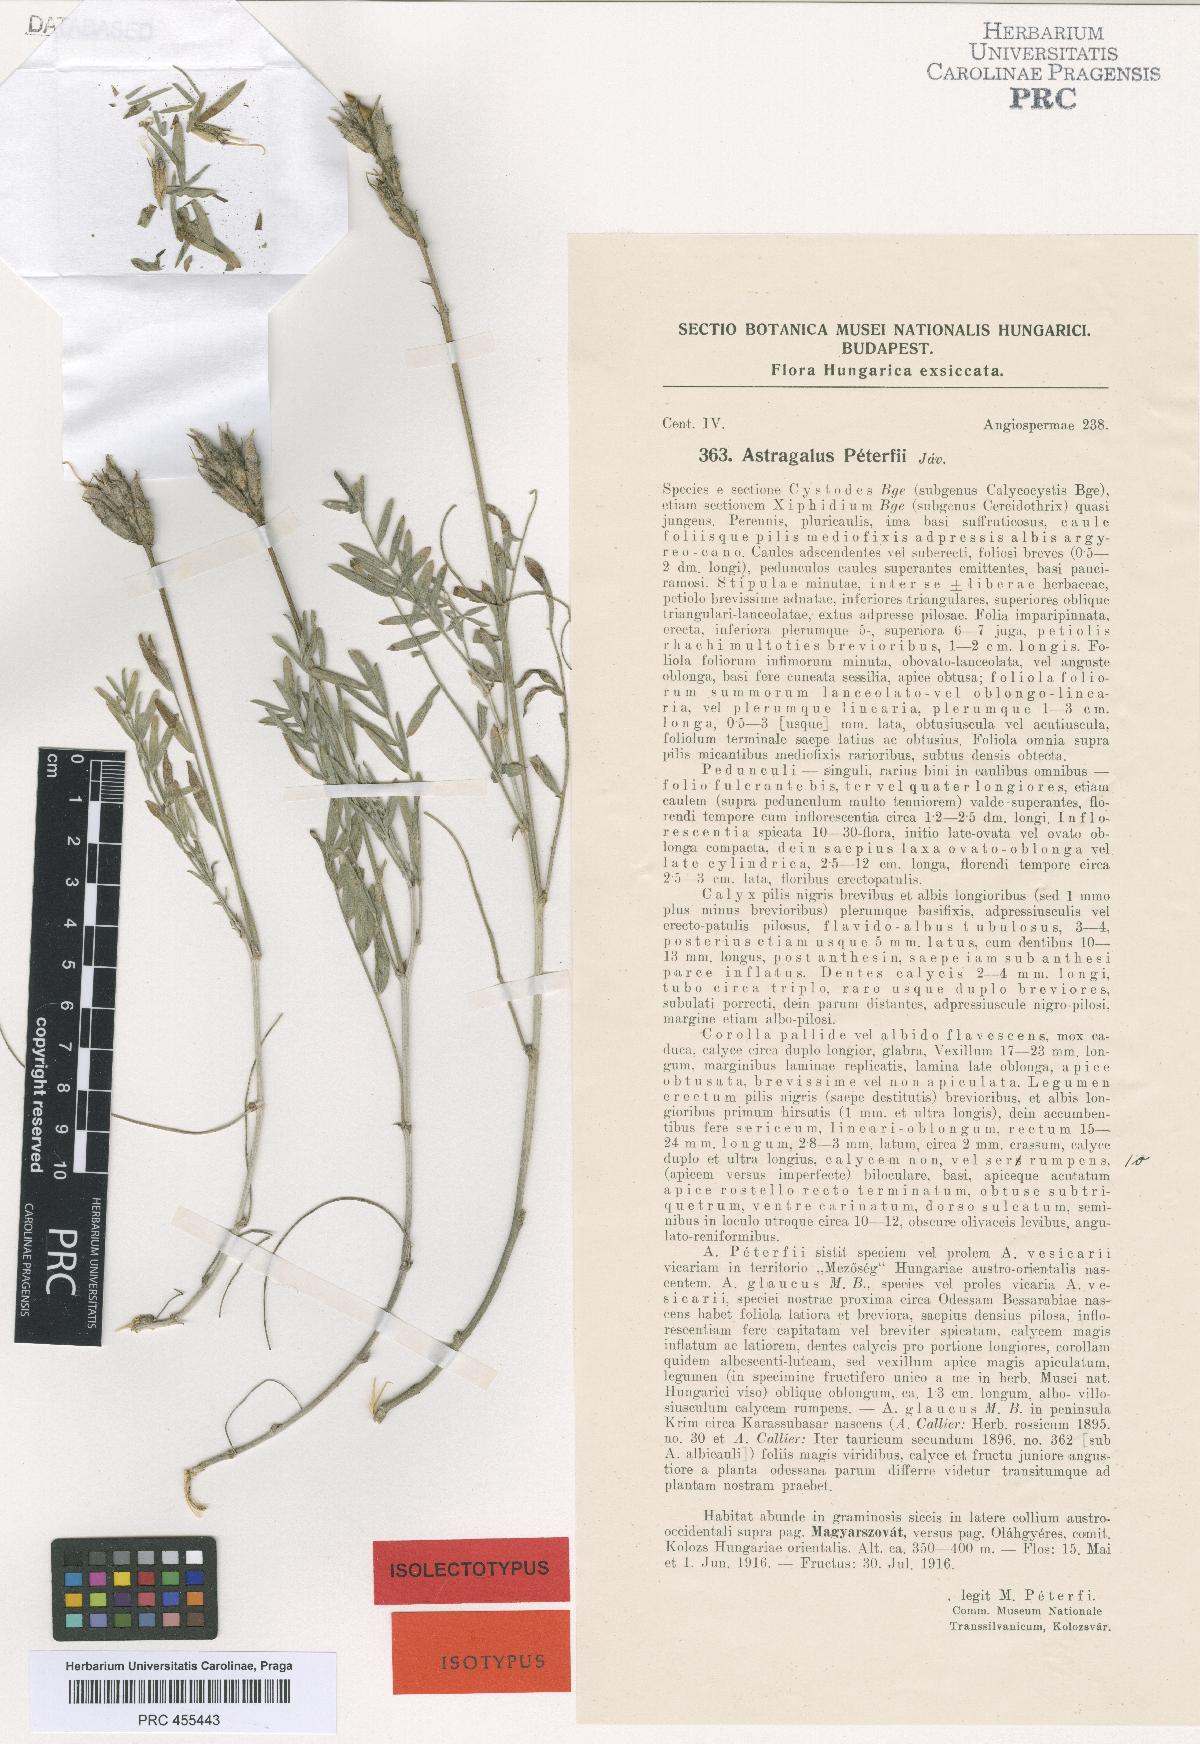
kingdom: Plantae
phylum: Tracheophyta
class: Magnoliopsida
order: Fabales
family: Fabaceae
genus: Astragalus
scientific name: Astragalus peterfii
